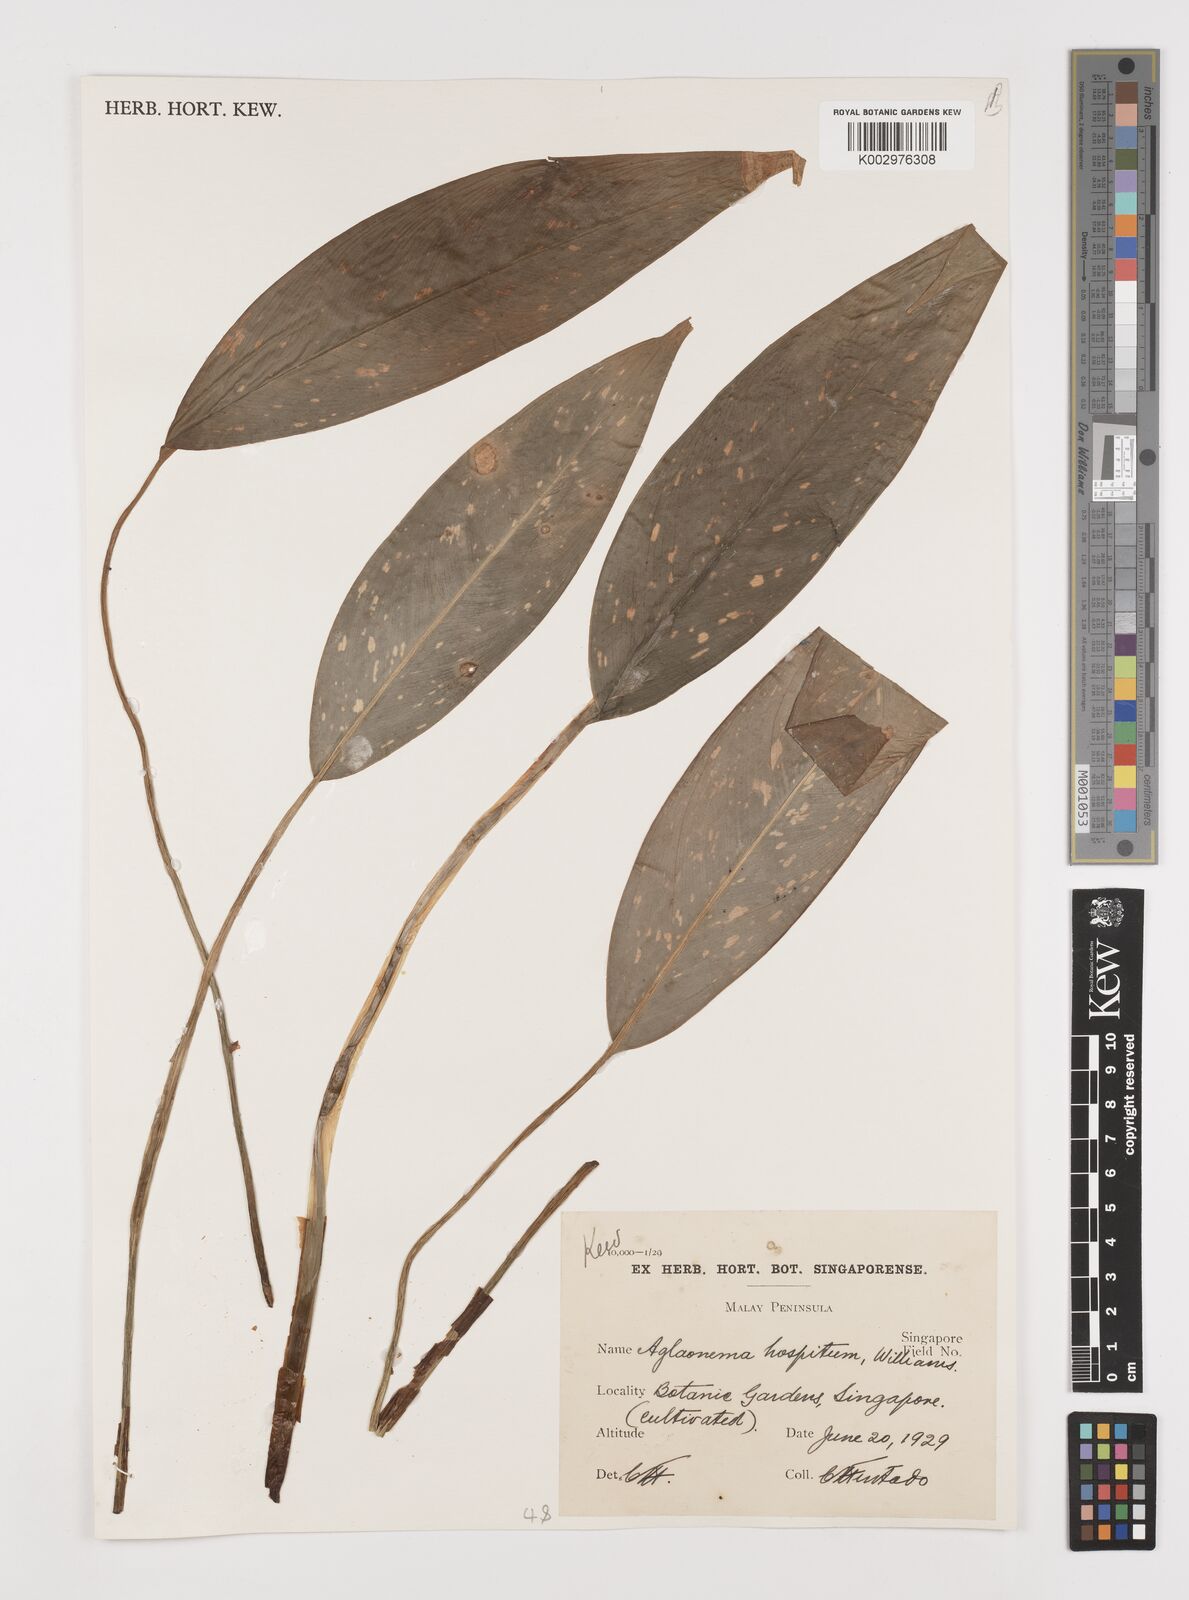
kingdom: Plantae
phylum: Tracheophyta
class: Liliopsida
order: Alismatales
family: Araceae
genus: Aglaonema
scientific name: Aglaonema brevispathum
